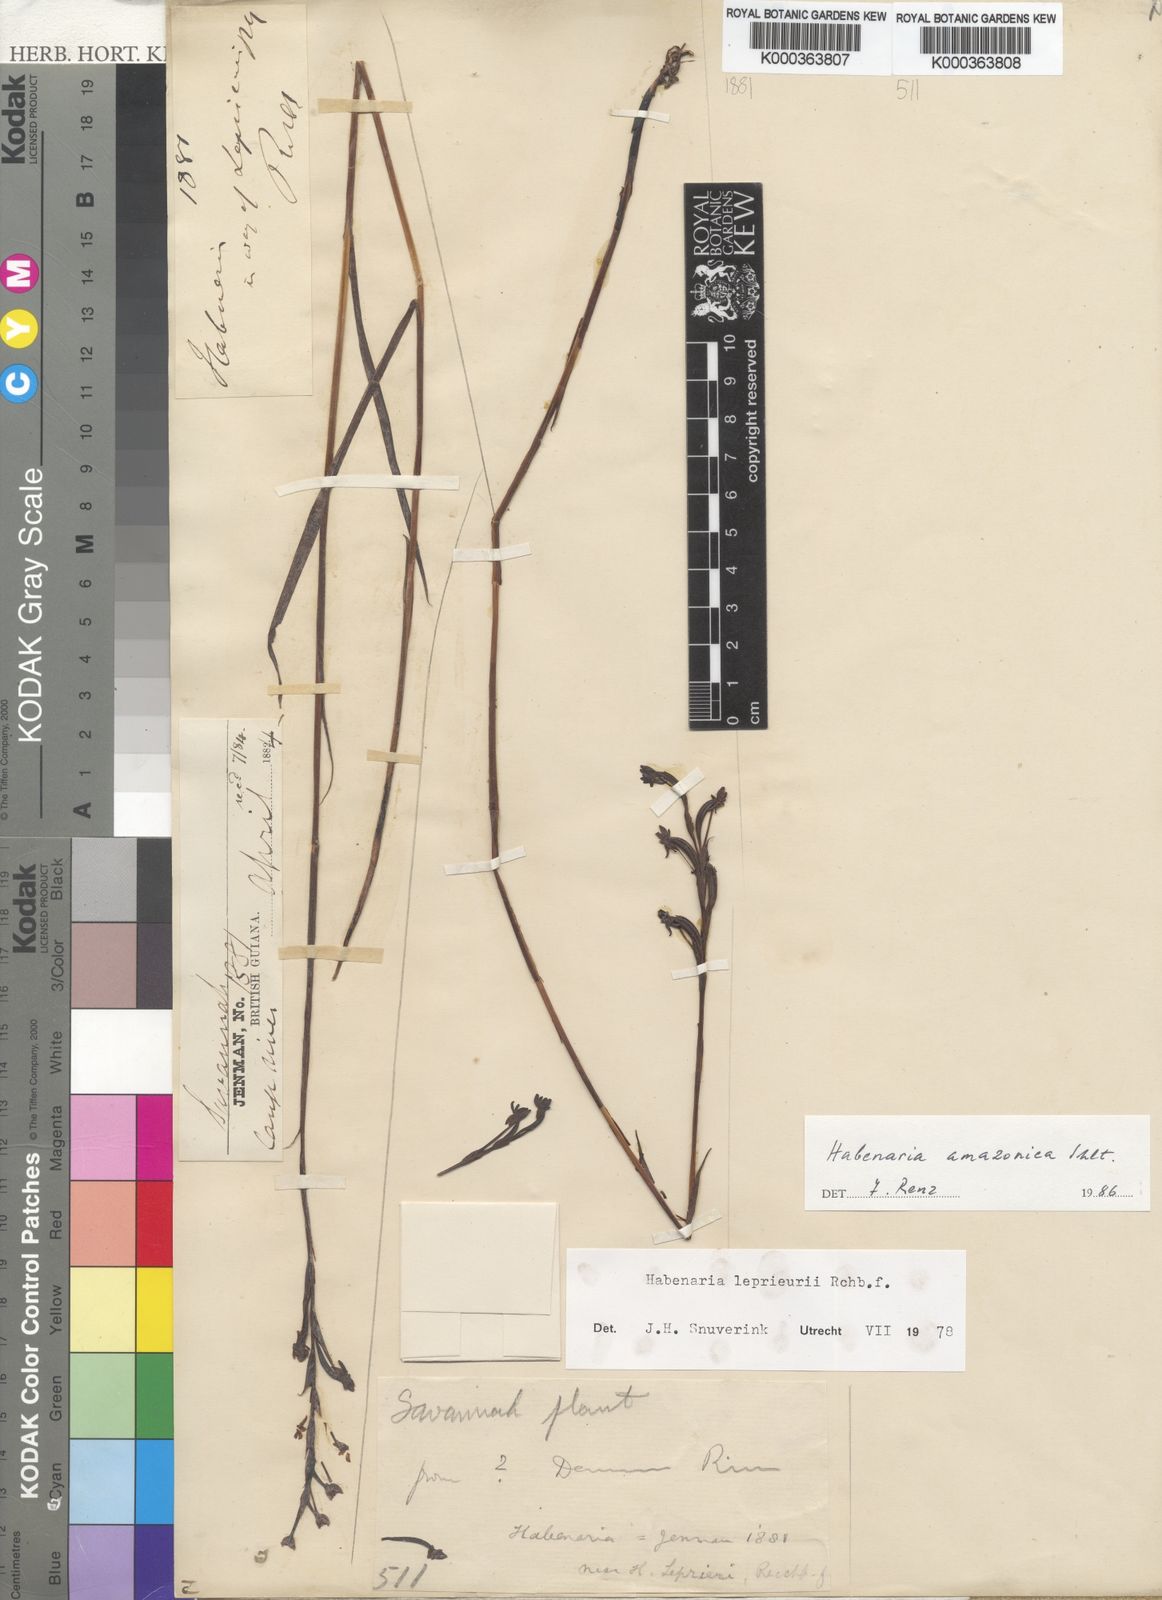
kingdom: Plantae
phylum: Tracheophyta
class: Liliopsida
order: Asparagales
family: Orchidaceae
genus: Habenaria
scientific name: Habenaria leprieurii
